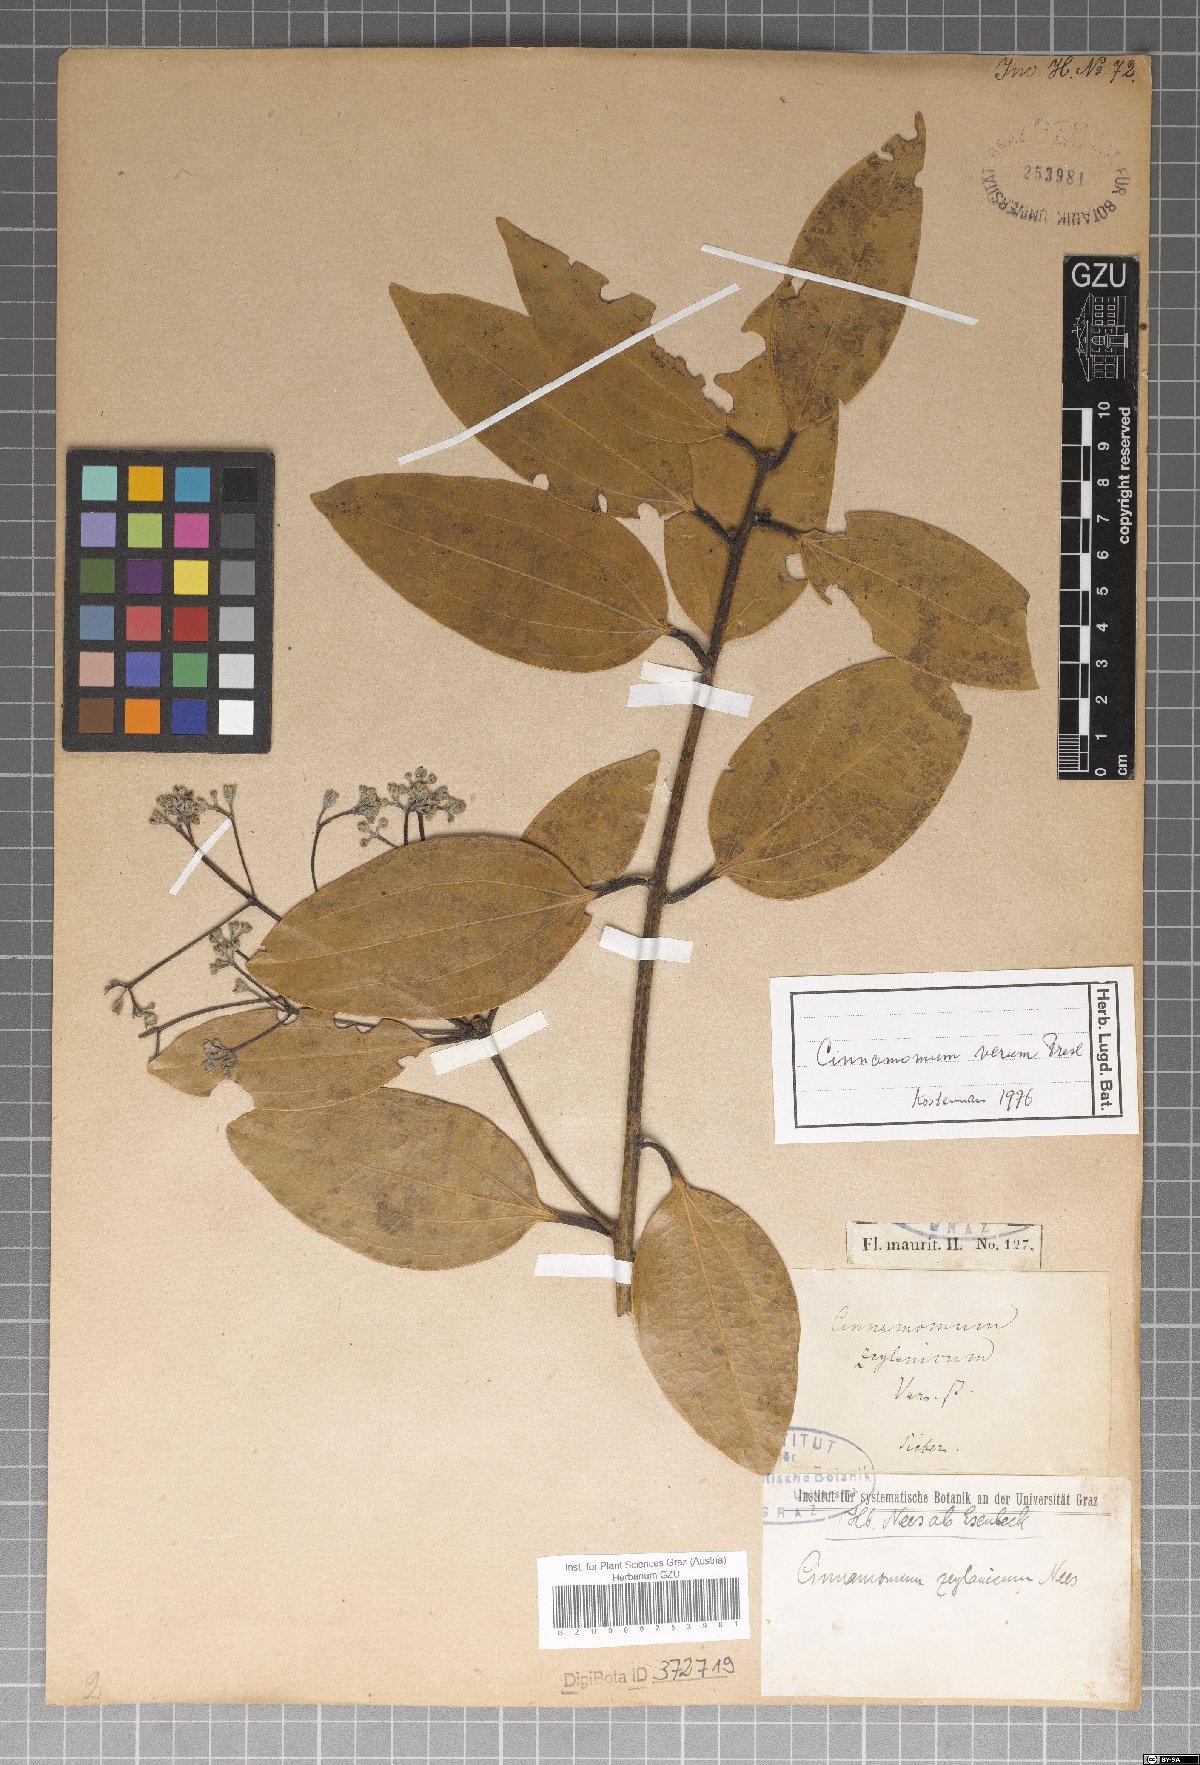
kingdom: Plantae
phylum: Tracheophyta
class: Magnoliopsida
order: Laurales
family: Lauraceae
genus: Cinnamomum
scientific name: Cinnamomum verum
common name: Cinnamon
